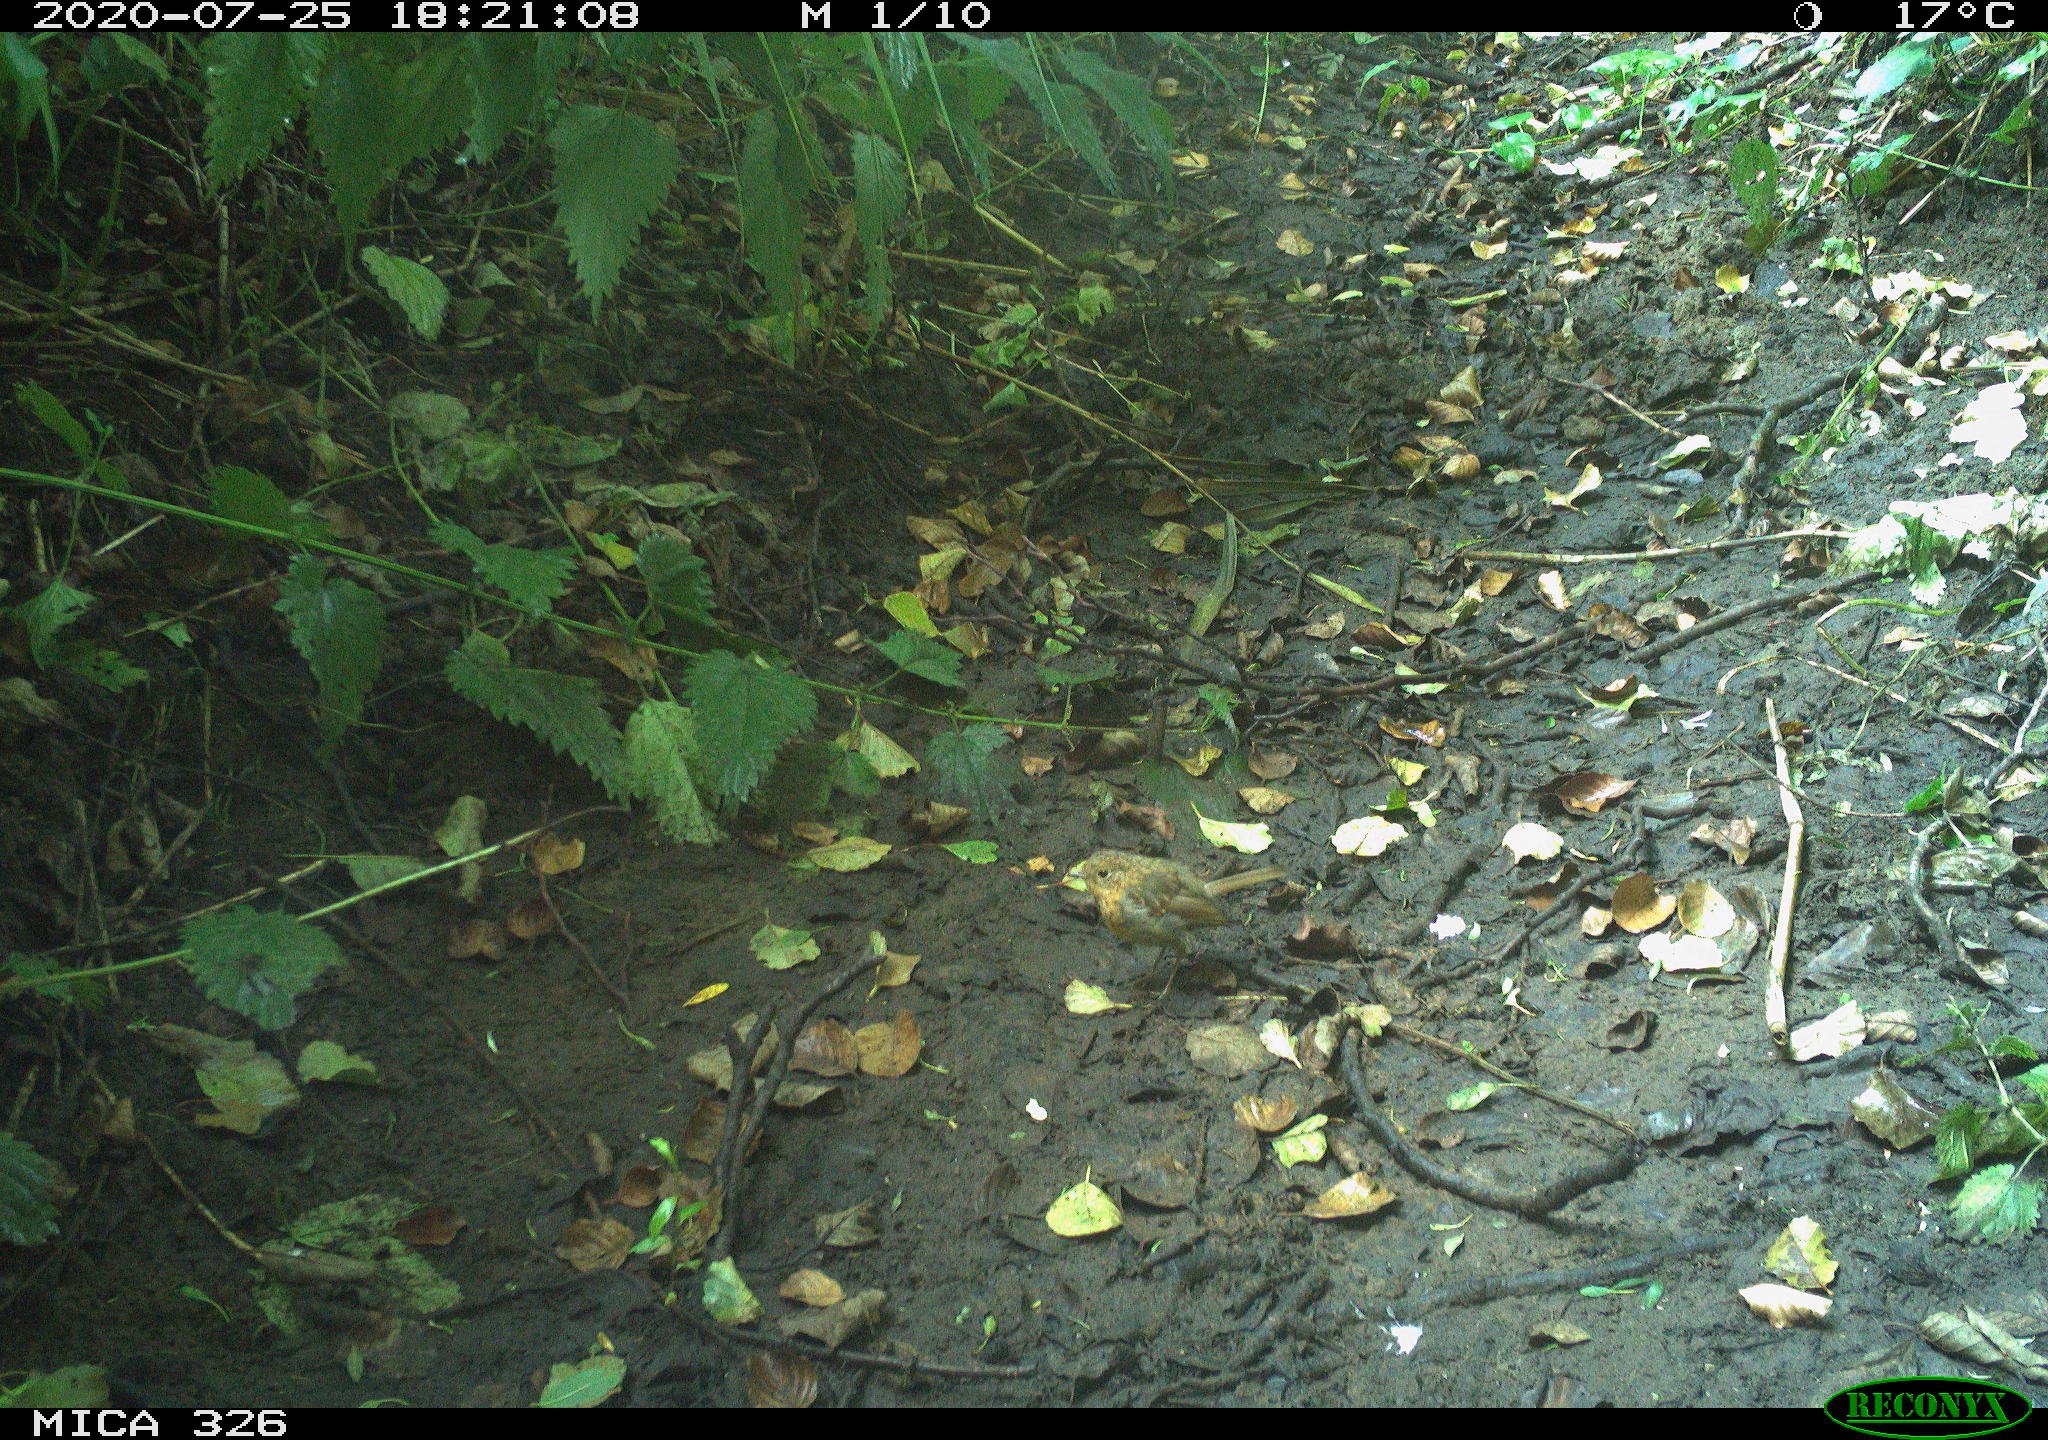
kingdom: Animalia
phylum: Chordata
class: Aves
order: Passeriformes
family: Muscicapidae
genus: Erithacus
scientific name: Erithacus rubecula
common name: European robin
